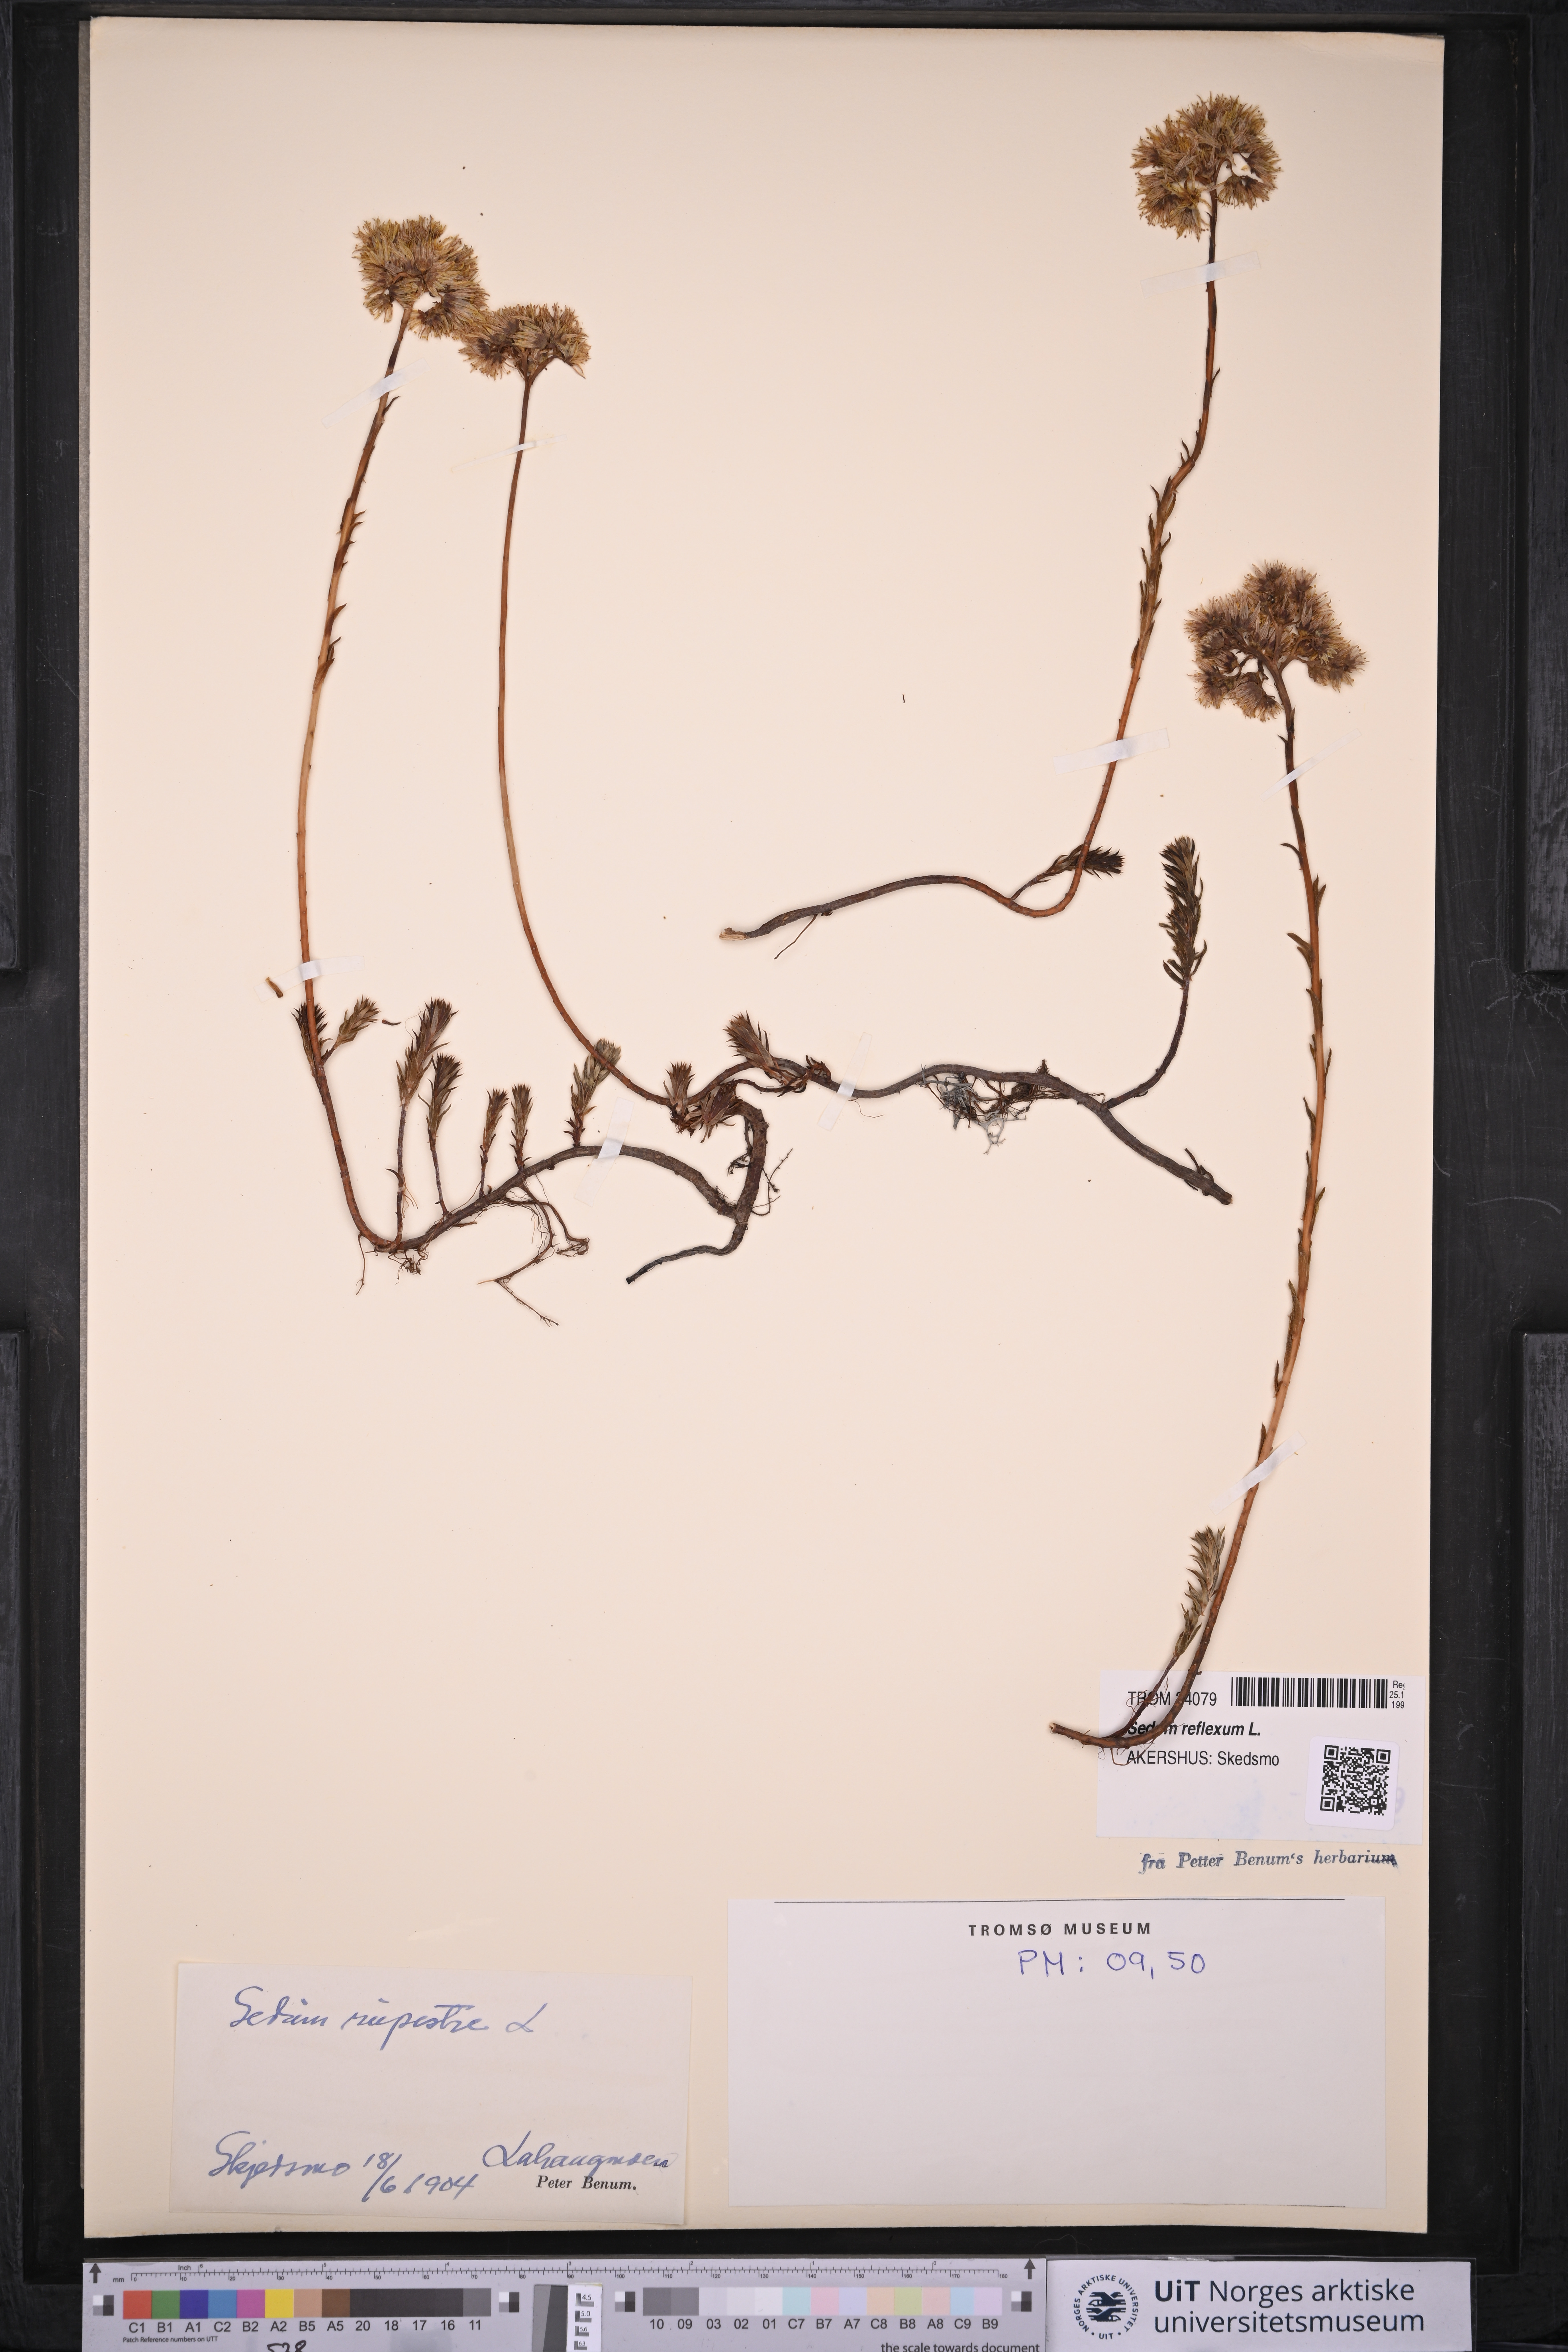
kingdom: Plantae
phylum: Tracheophyta
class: Magnoliopsida
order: Saxifragales
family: Crassulaceae
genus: Petrosedum
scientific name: Petrosedum rupestre
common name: Jenny's stonecrop
